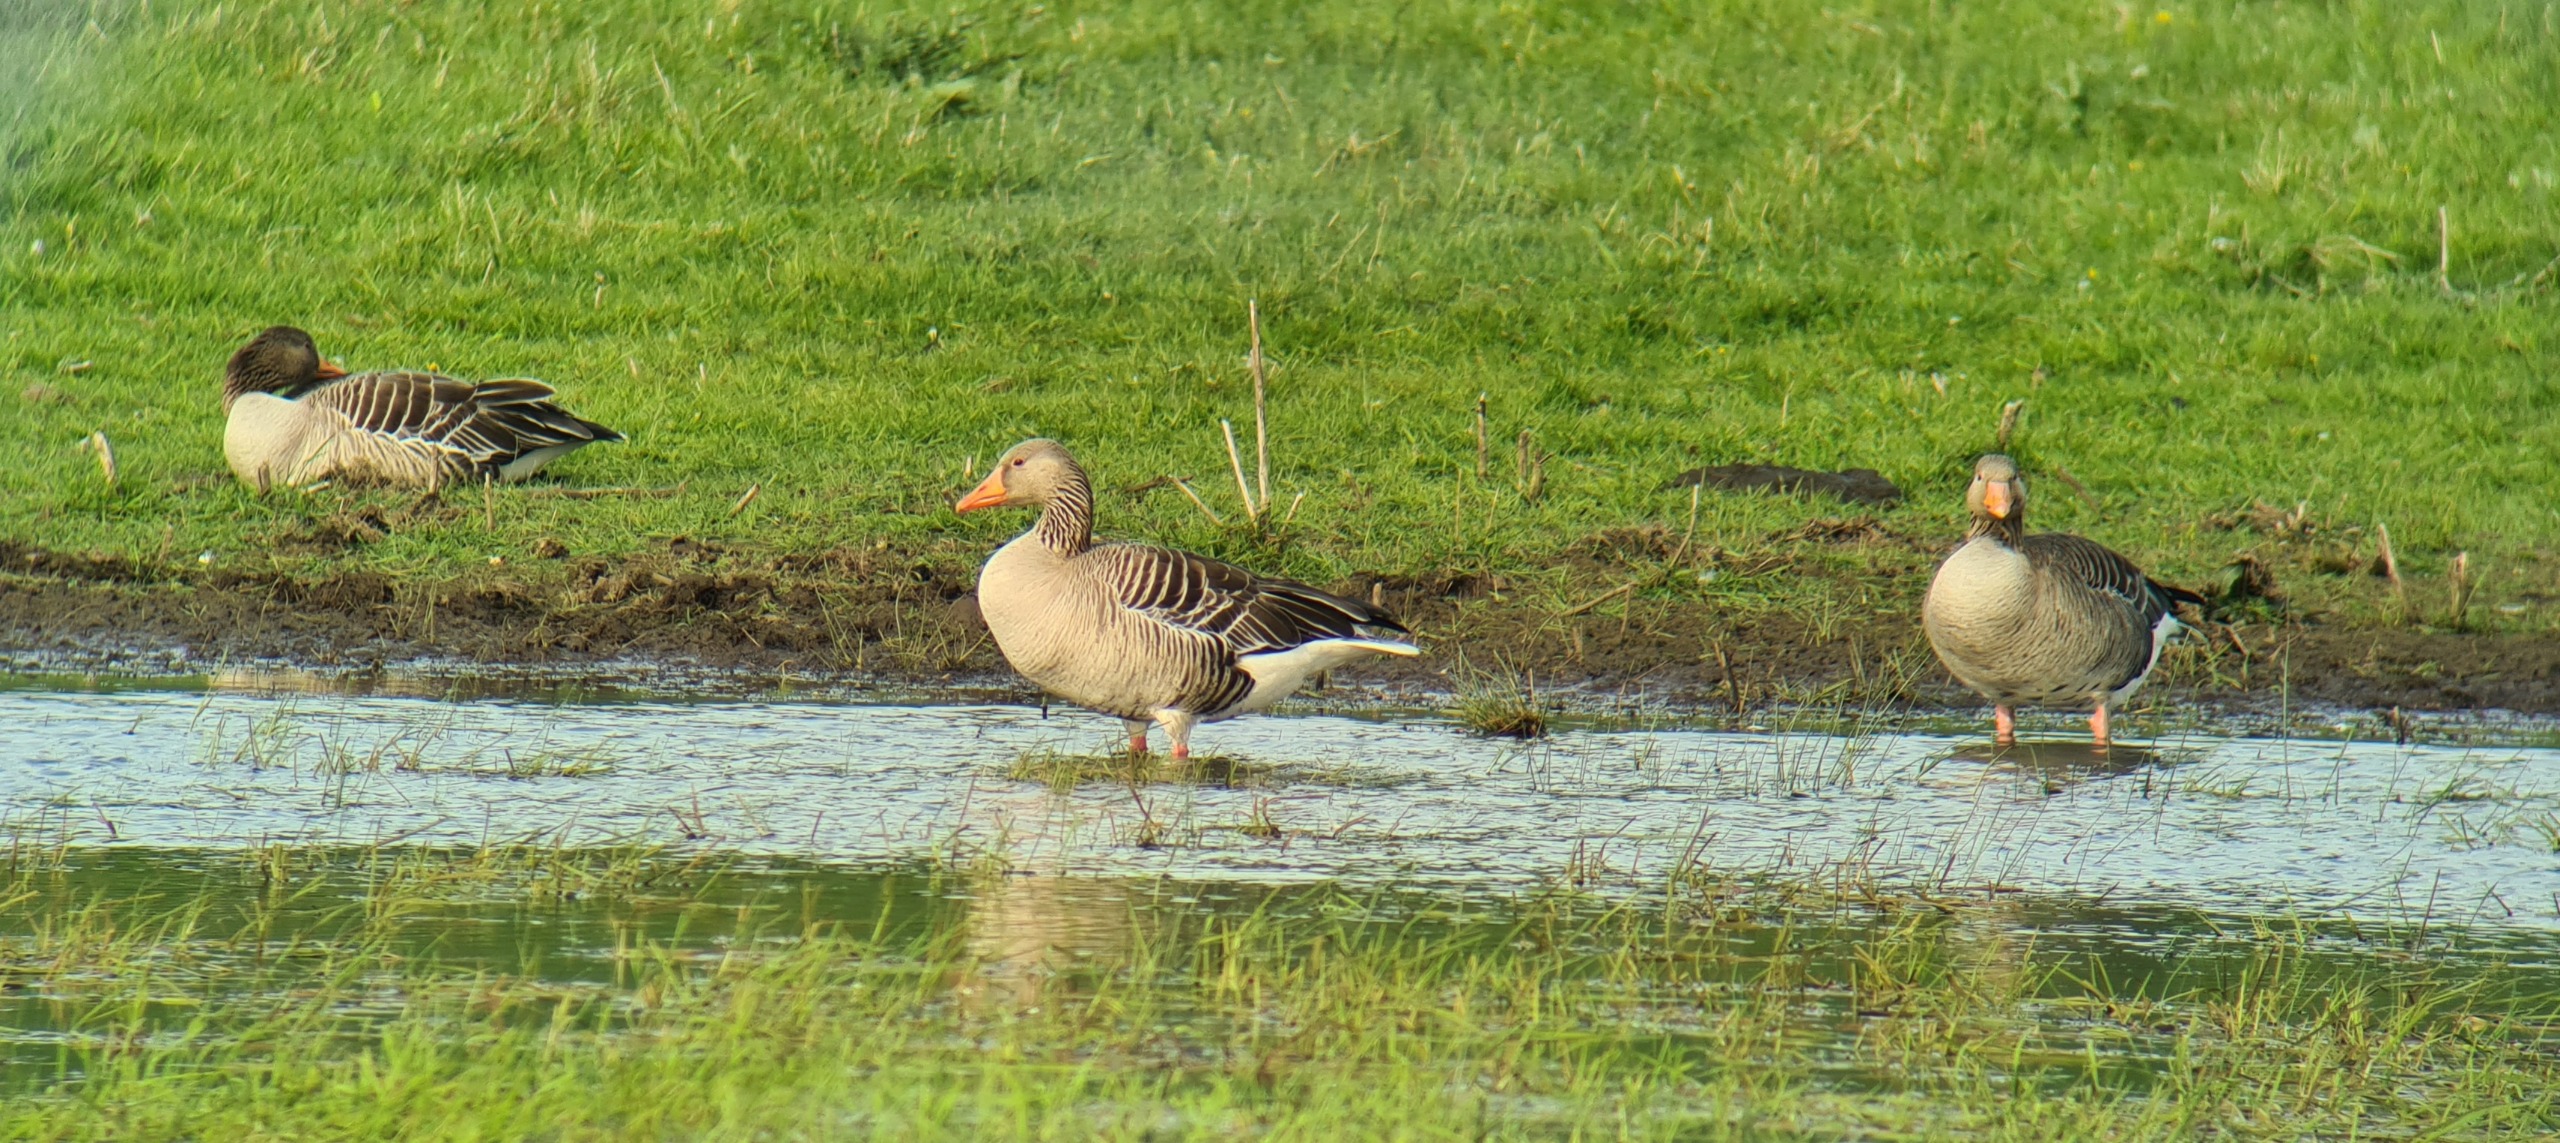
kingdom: Animalia
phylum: Chordata
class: Aves
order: Anseriformes
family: Anatidae
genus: Anser
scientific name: Anser anser
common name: Grågås
